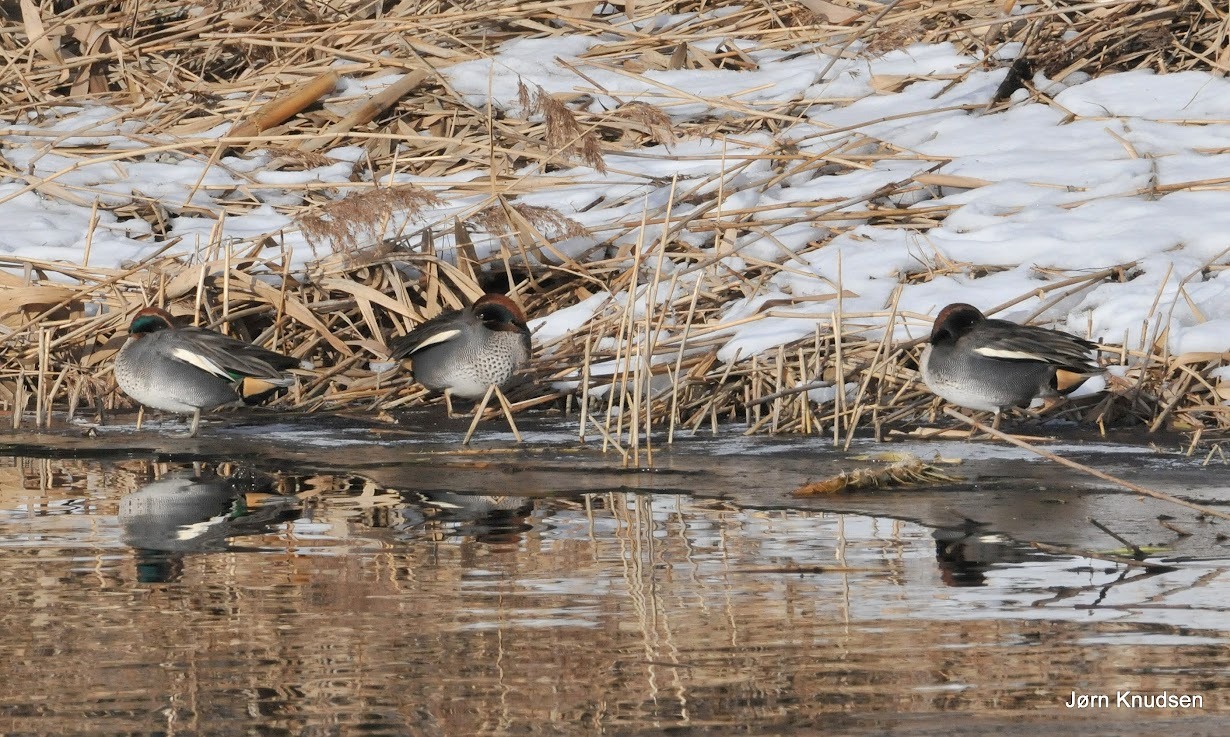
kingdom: Animalia
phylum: Chordata
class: Aves
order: Anseriformes
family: Anatidae
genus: Anas
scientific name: Anas crecca
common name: Krikand
